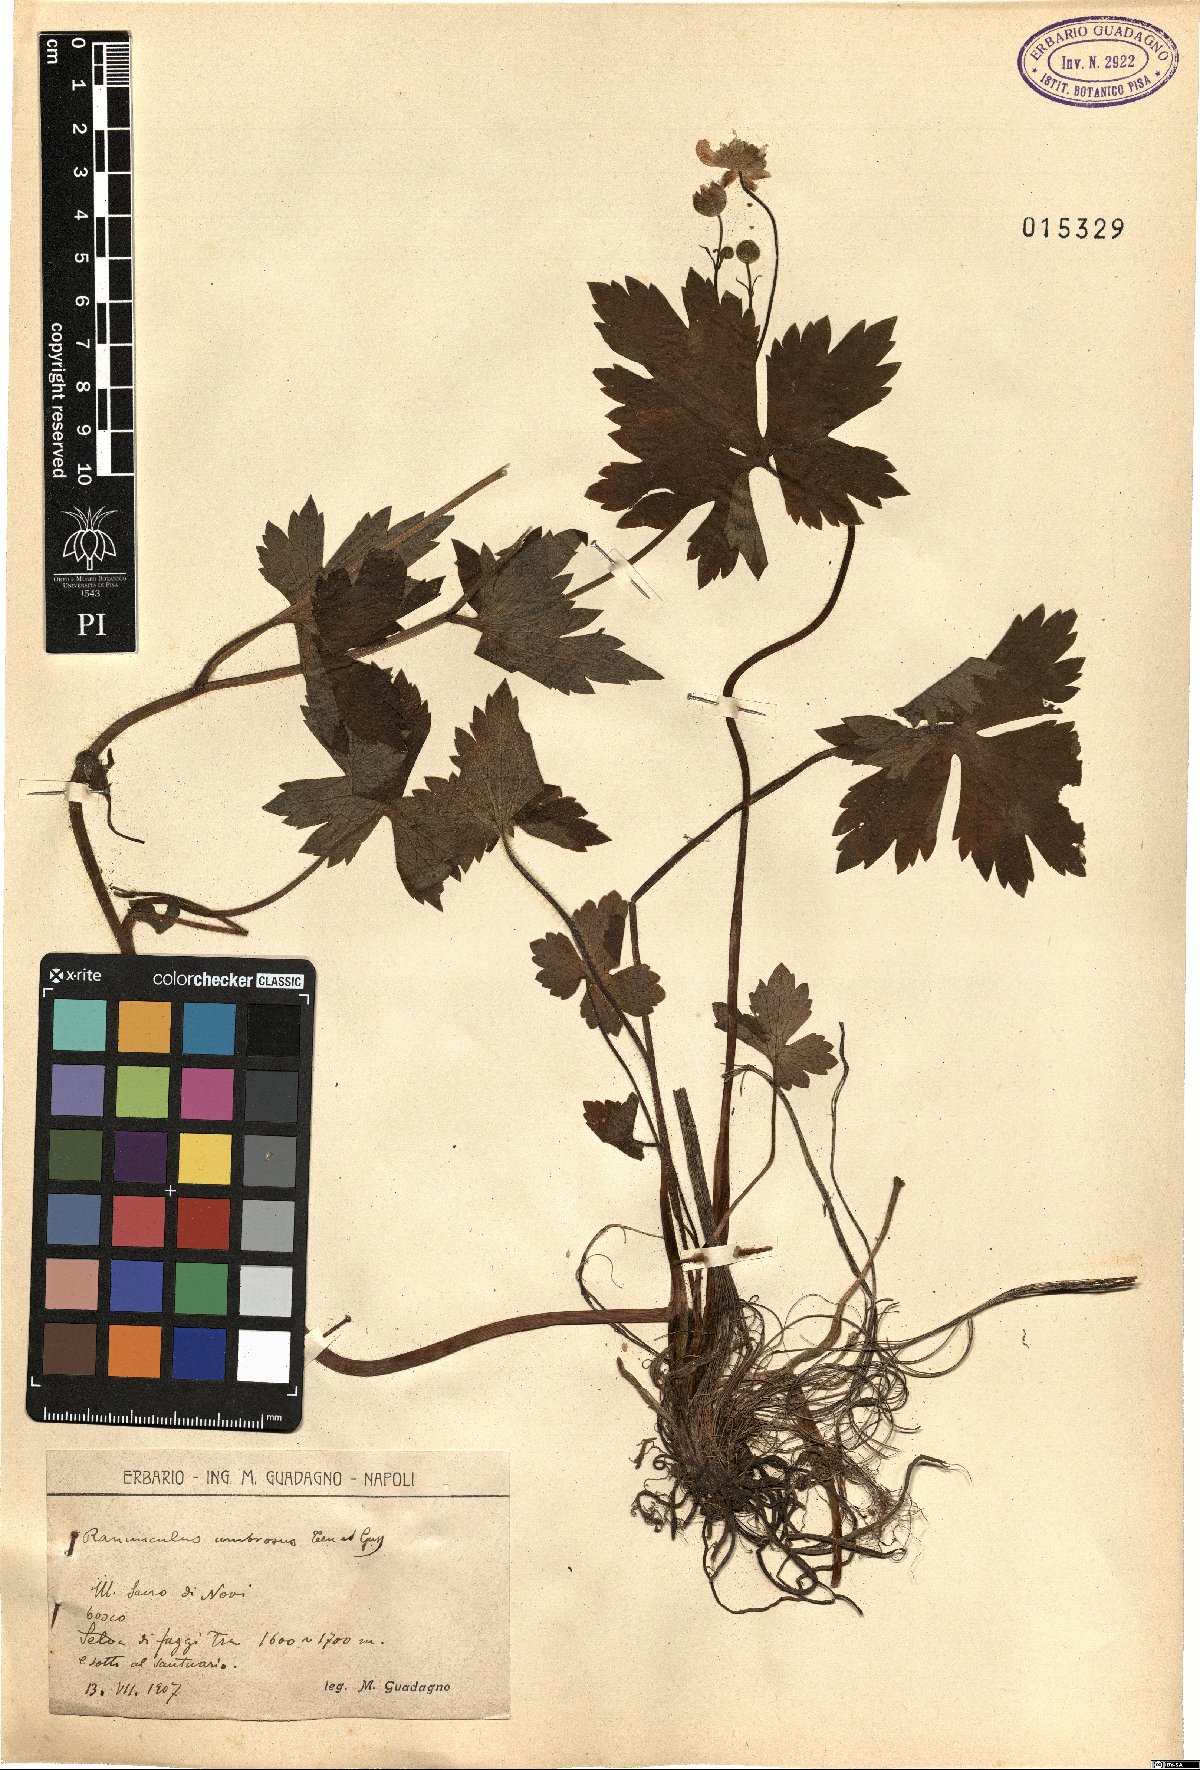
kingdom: Plantae
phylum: Tracheophyta
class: Magnoliopsida
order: Ranunculales
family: Ranunculaceae
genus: Ranunculus
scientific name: Ranunculus lanuginosus
